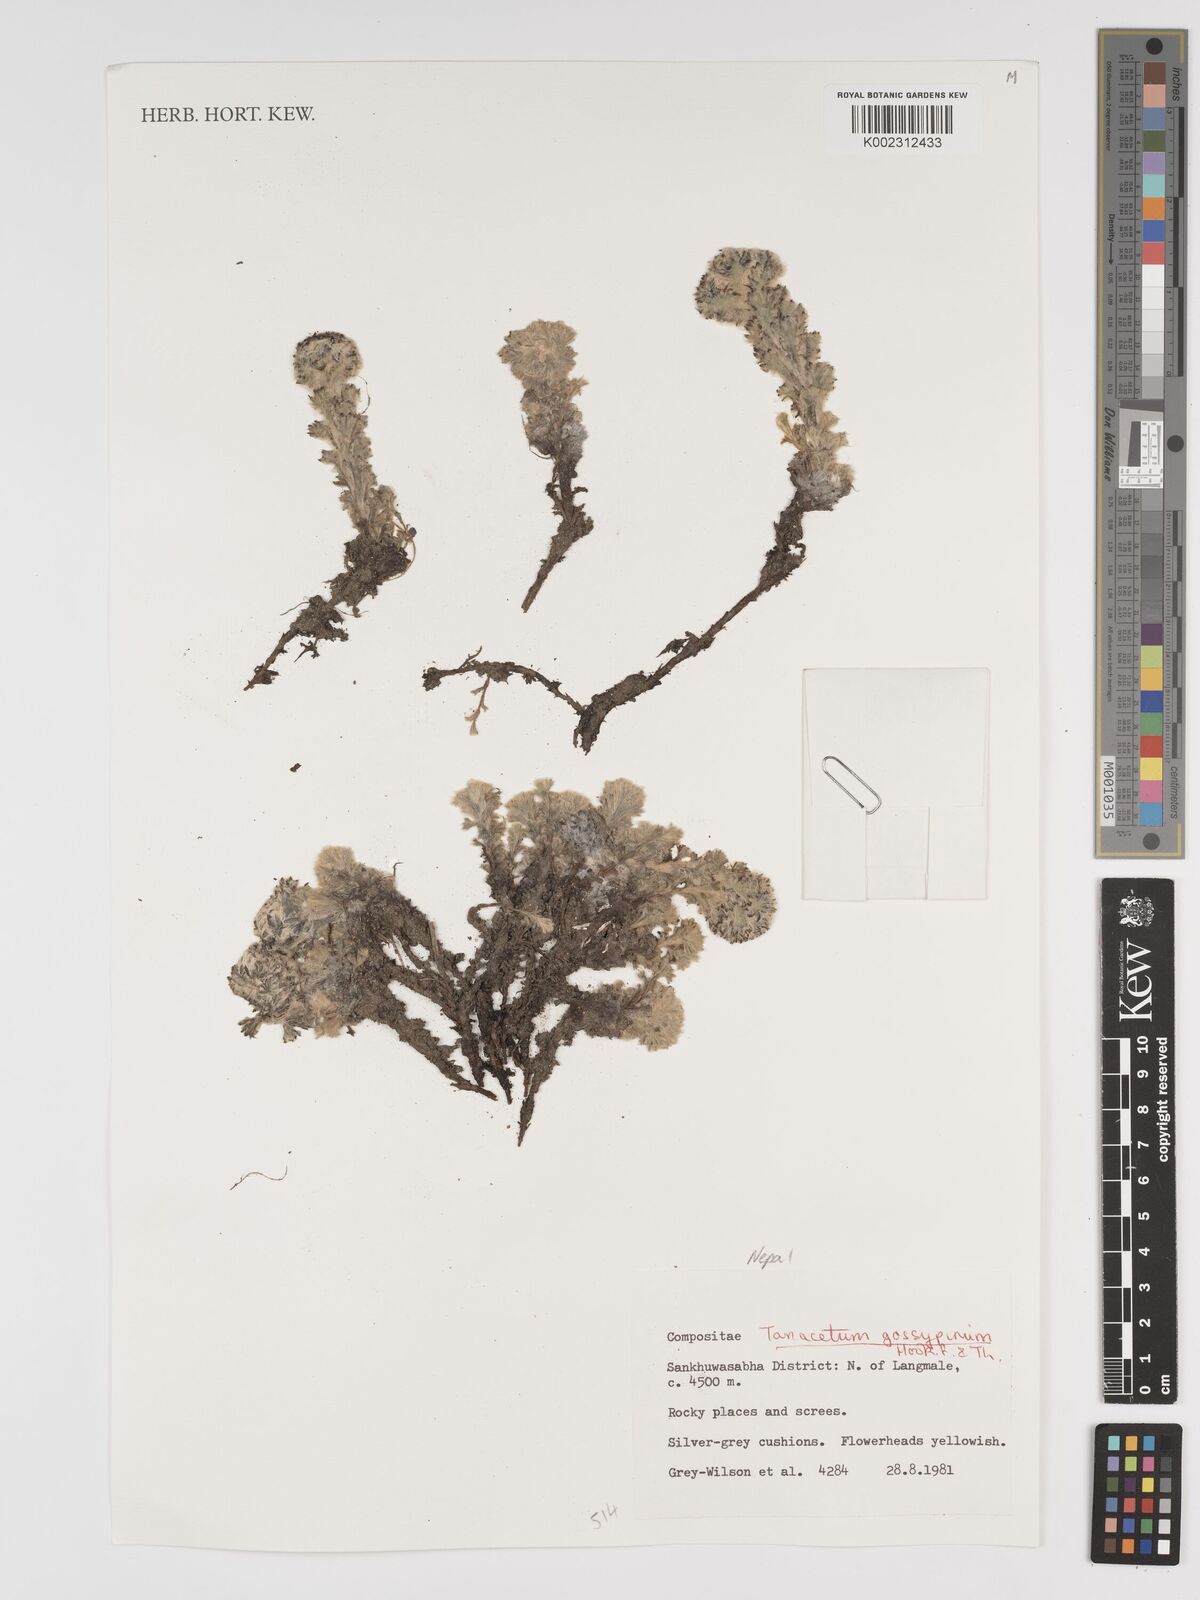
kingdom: Plantae
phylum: Tracheophyta
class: Magnoliopsida
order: Asterales
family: Asteraceae
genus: Hippolytia
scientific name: Hippolytia gossypina
